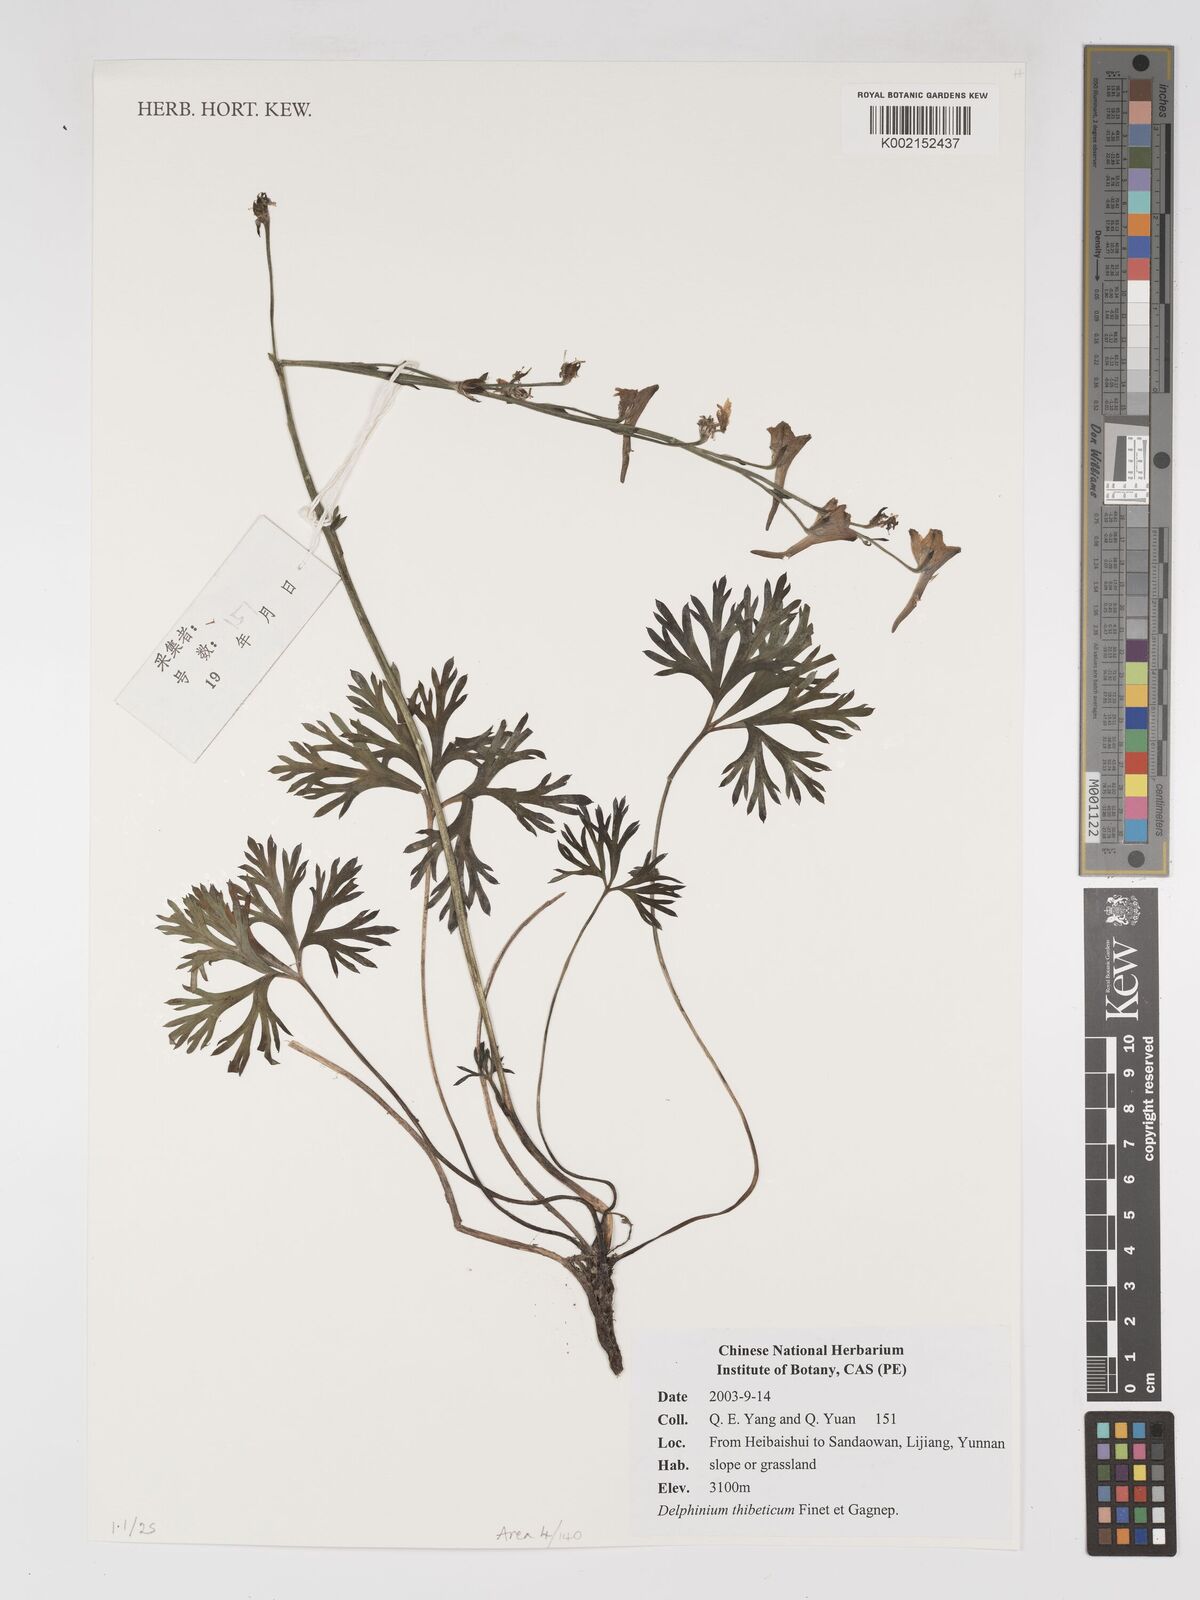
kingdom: Plantae
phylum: Tracheophyta
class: Magnoliopsida
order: Ranunculales
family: Ranunculaceae
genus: Delphinium
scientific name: Delphinium thibeticum
